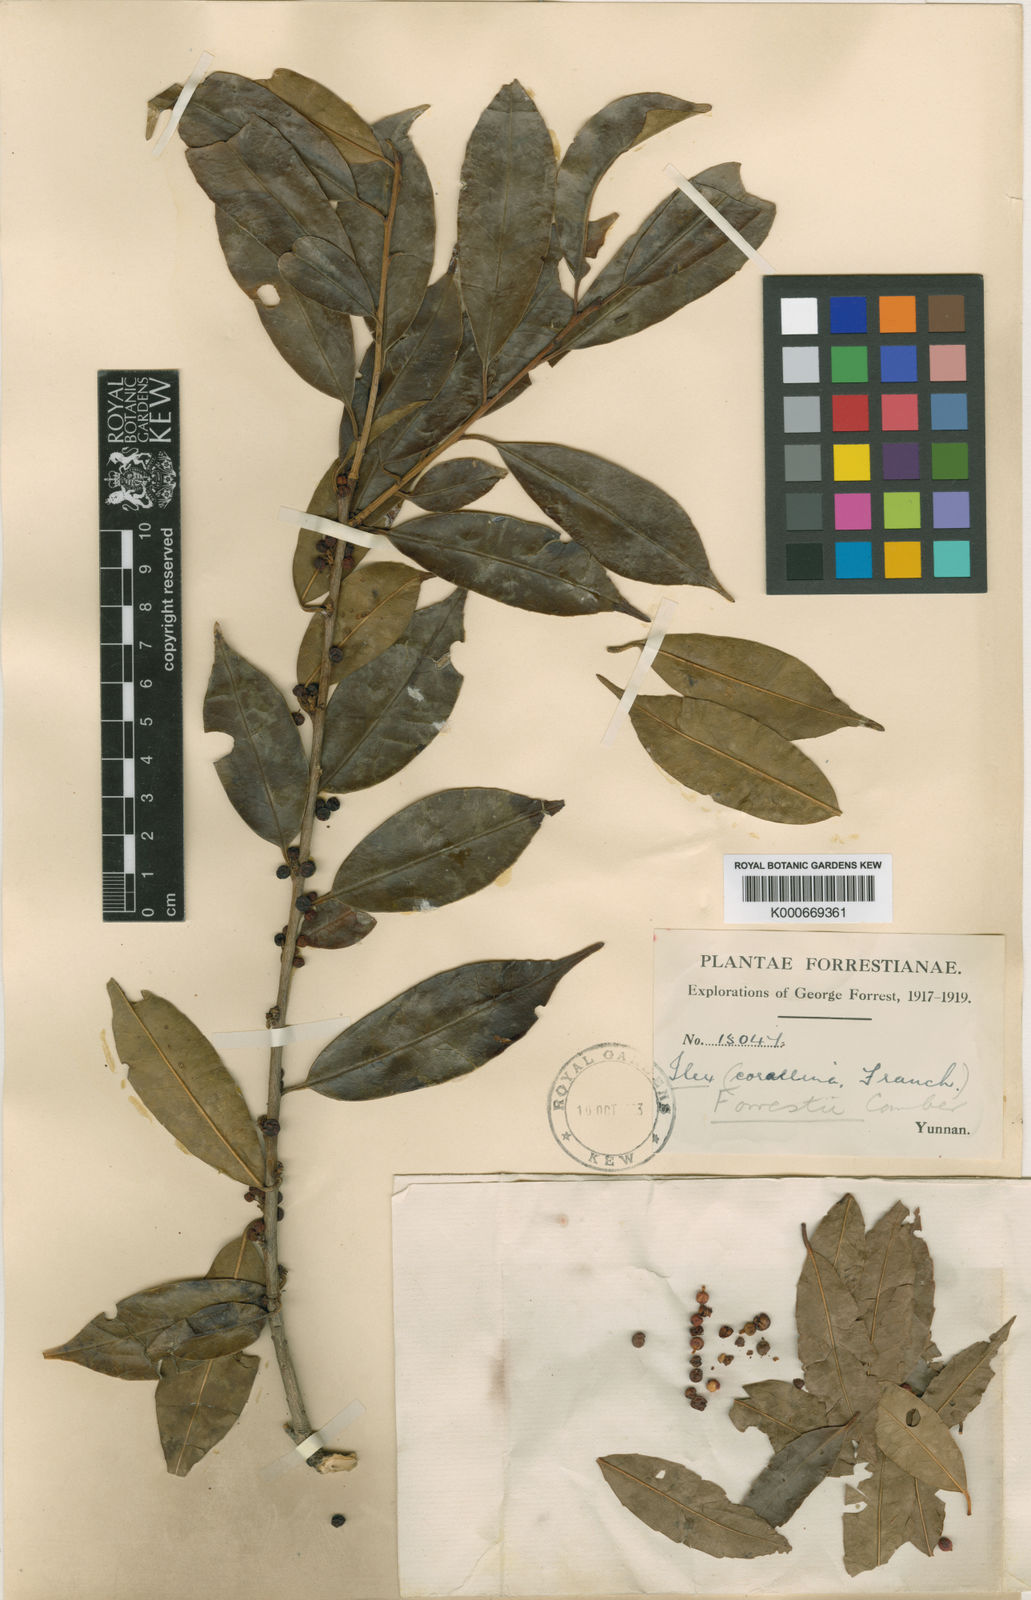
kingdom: Plantae
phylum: Tracheophyta
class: Magnoliopsida
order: Aquifoliales
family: Aquifoliaceae
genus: Ilex
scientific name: Ilex forrestii
